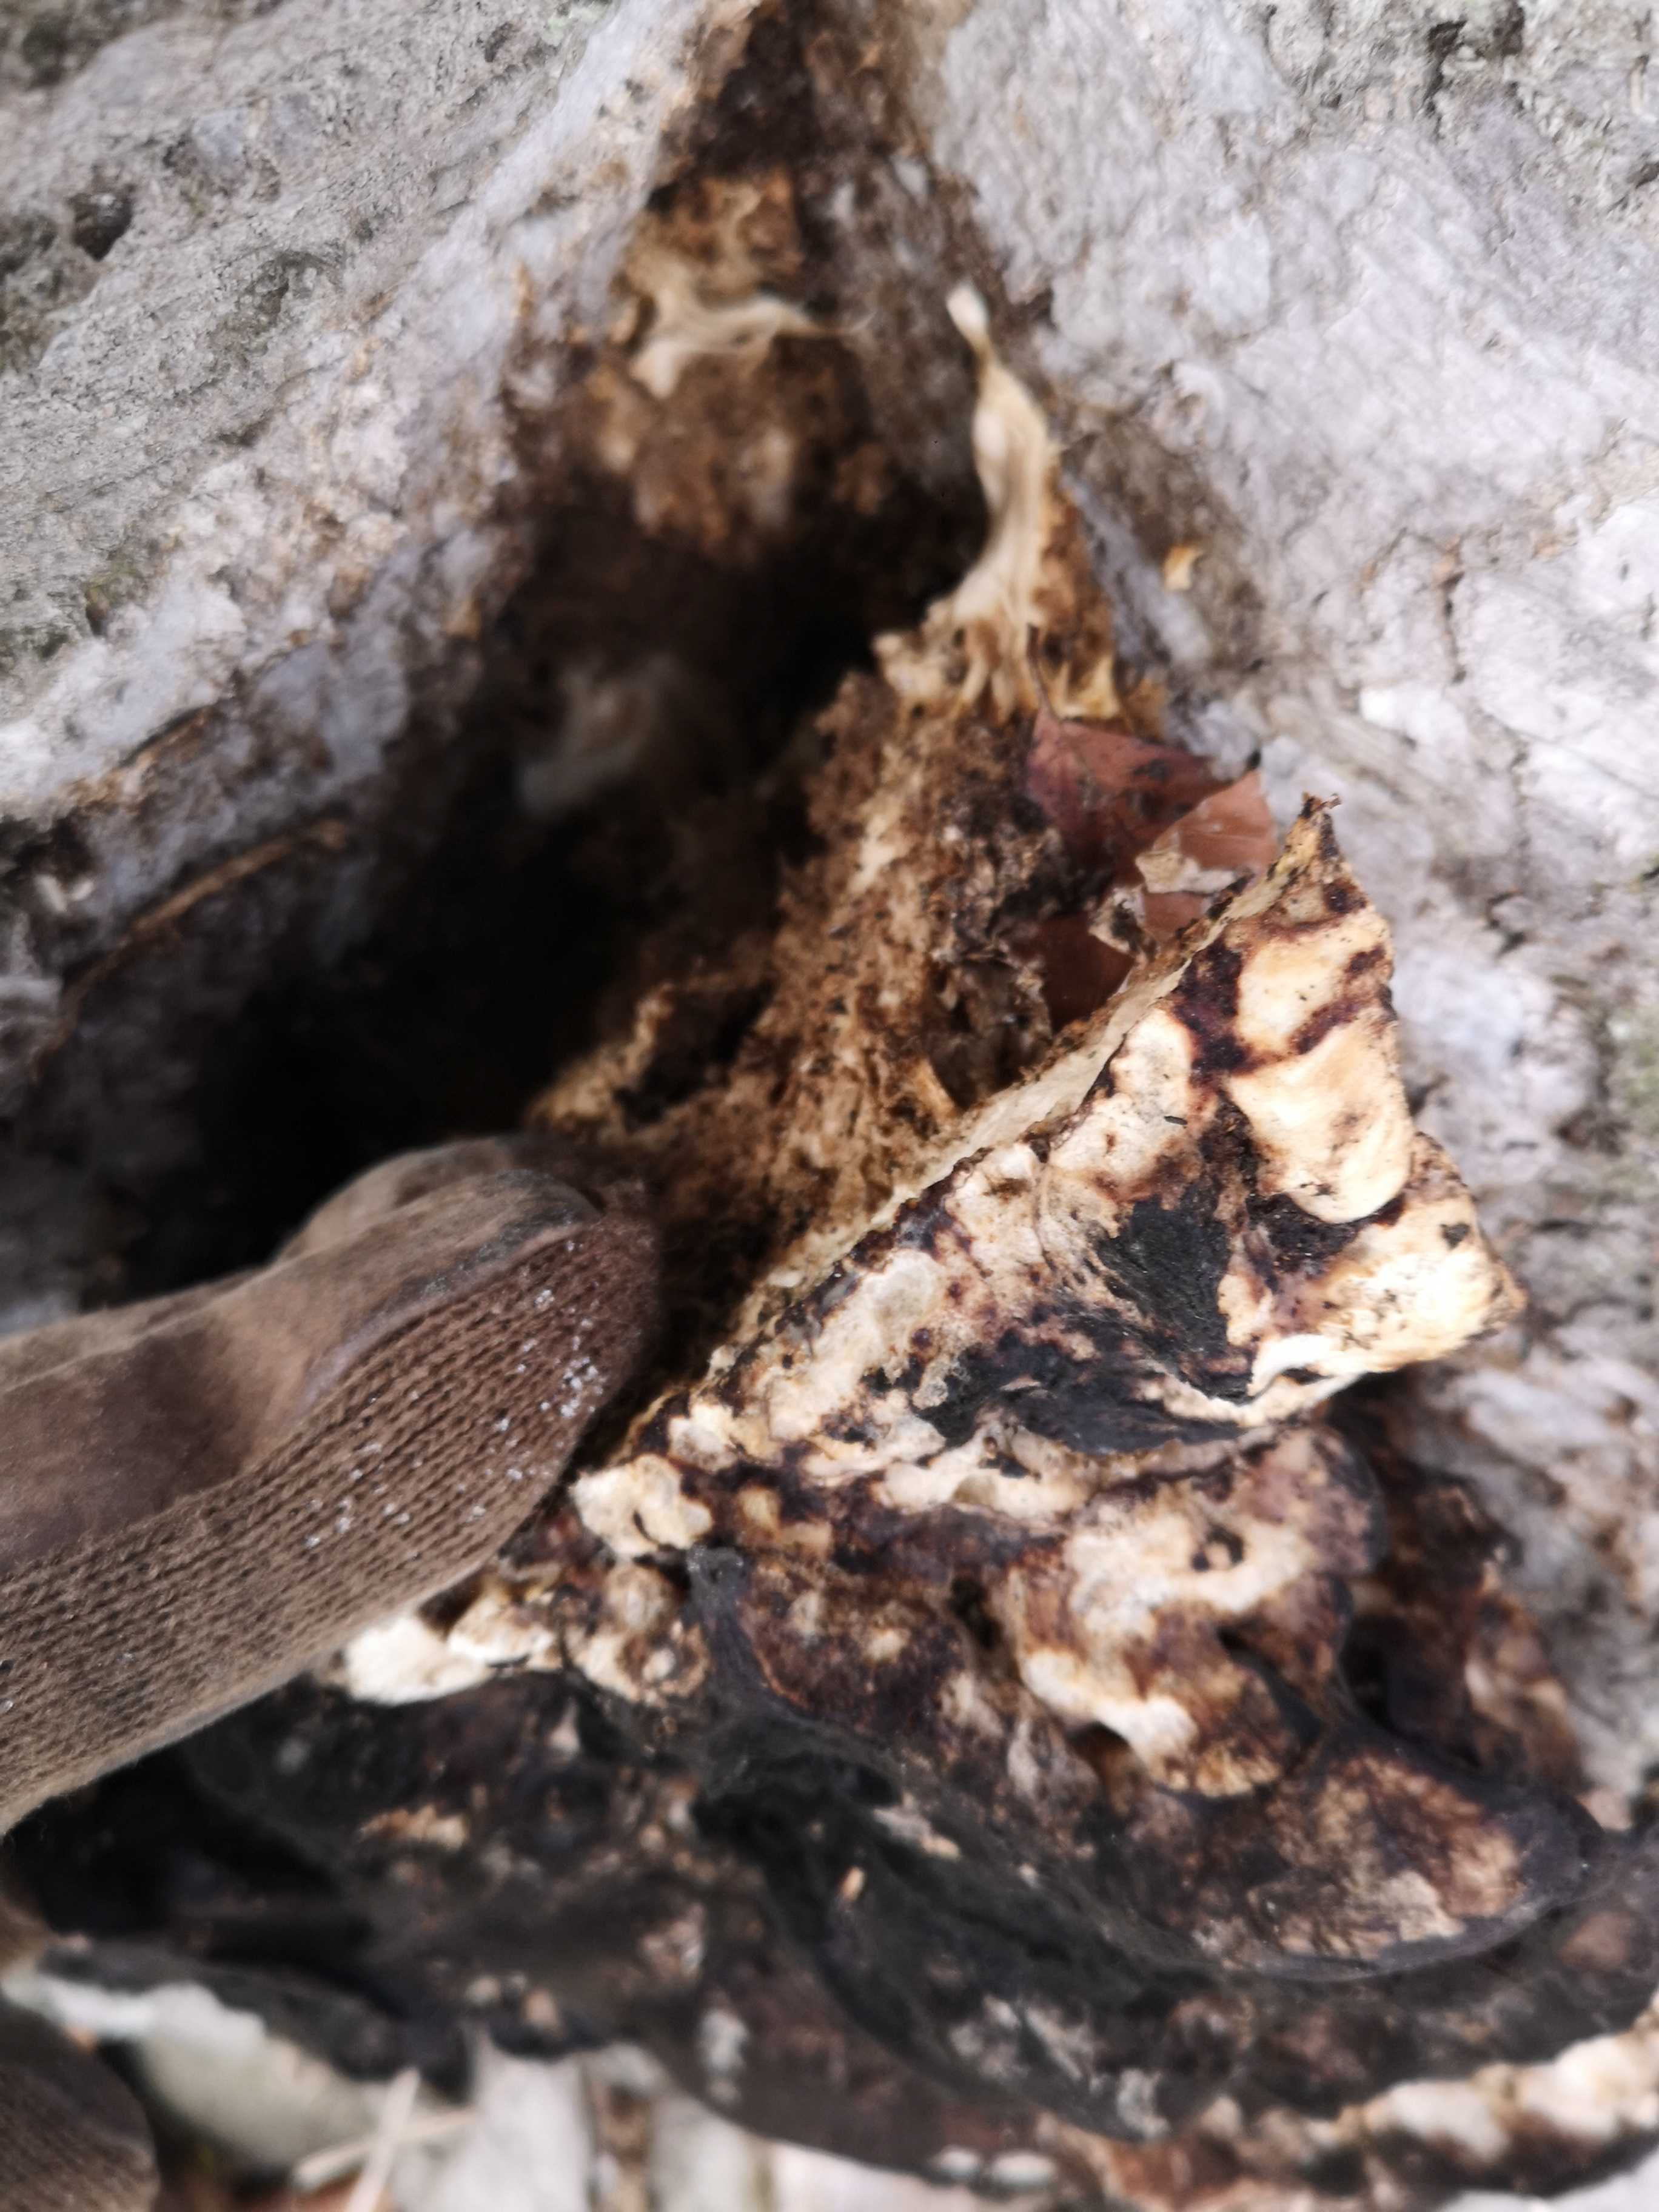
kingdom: Fungi
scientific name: Fungi
